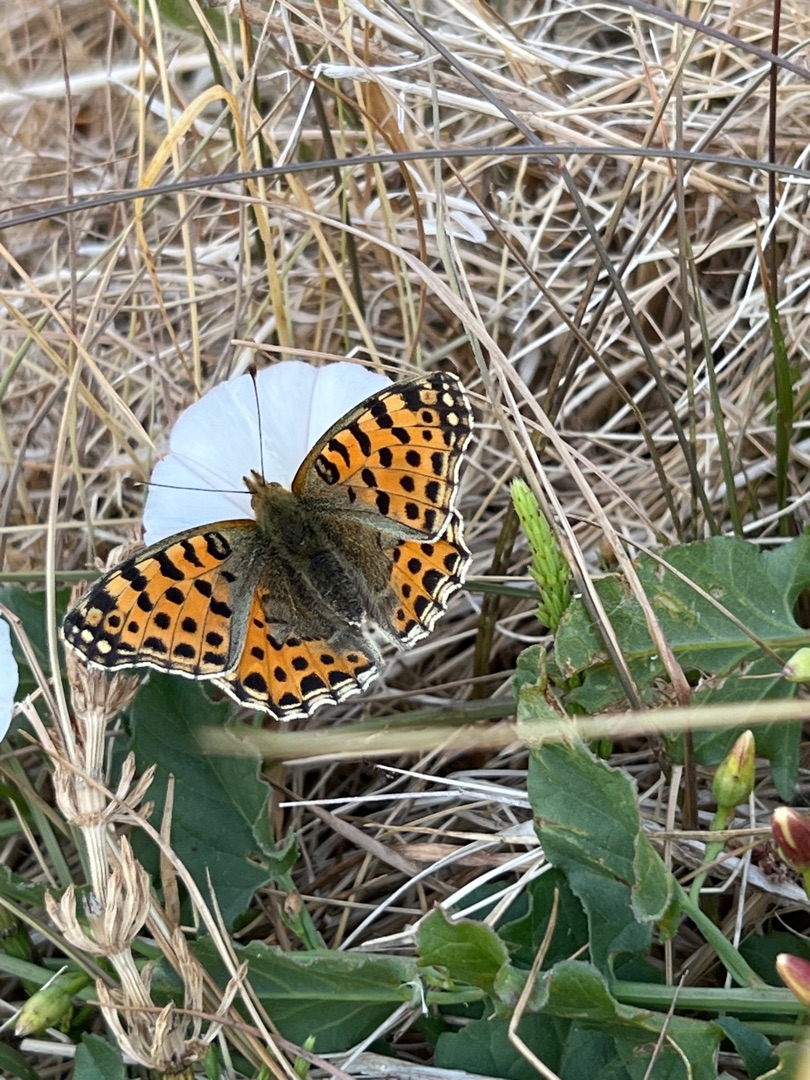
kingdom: Animalia
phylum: Arthropoda
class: Insecta
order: Lepidoptera
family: Nymphalidae
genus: Issoria
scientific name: Issoria lathonia
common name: Storplettet perlemorsommerfugl
